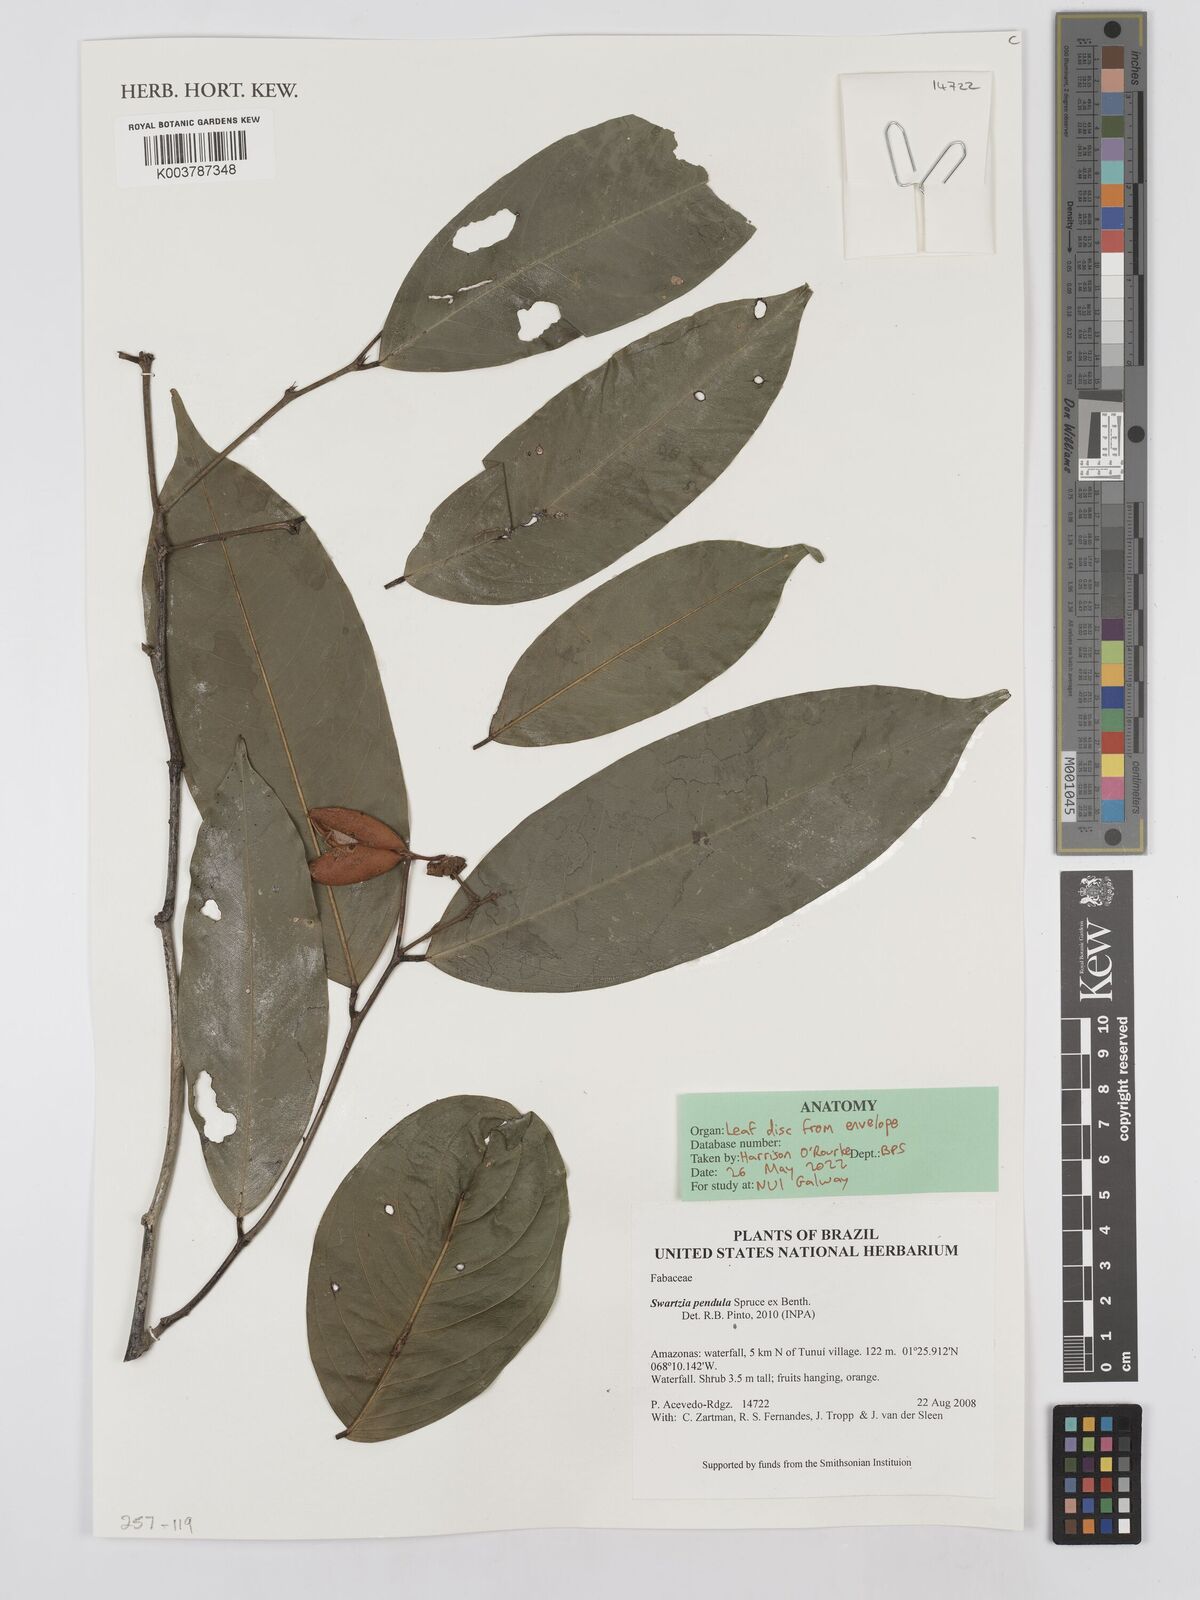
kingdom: Plantae
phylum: Tracheophyta
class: Magnoliopsida
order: Fabales
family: Fabaceae
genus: Swartzia
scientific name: Swartzia pendula
